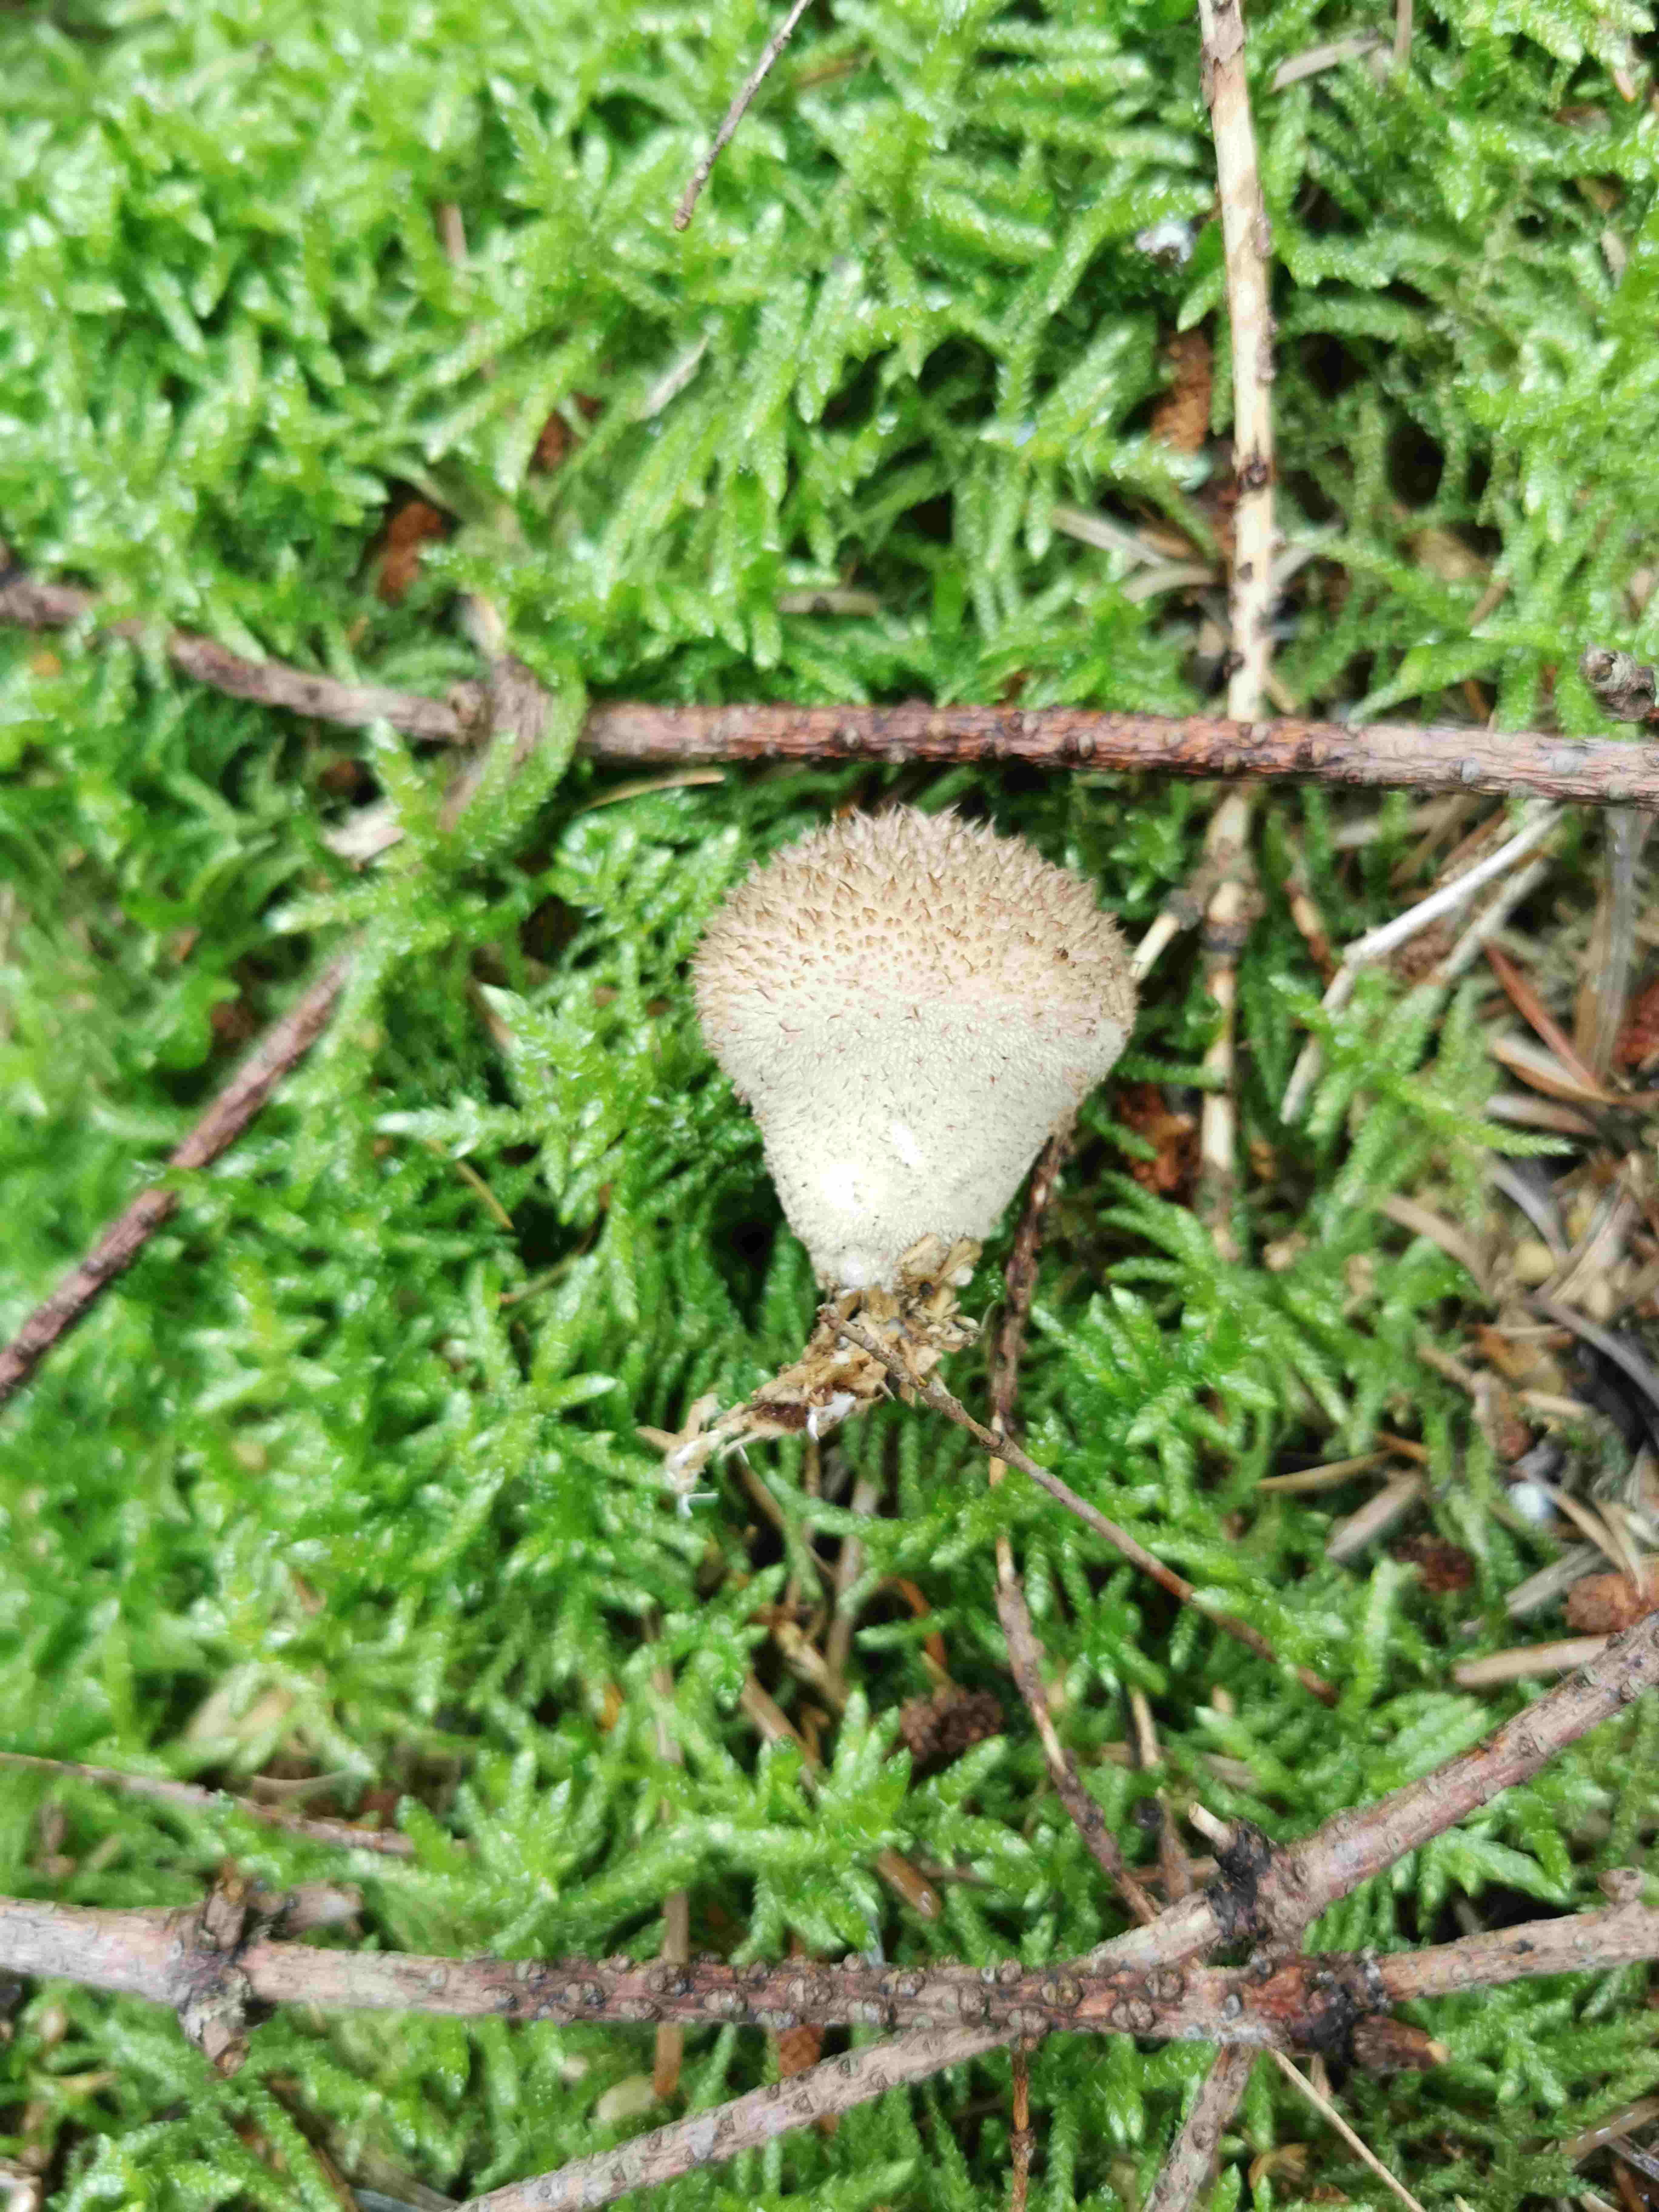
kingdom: Fungi
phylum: Basidiomycota
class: Agaricomycetes
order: Agaricales
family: Lycoperdaceae
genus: Lycoperdon
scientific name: Lycoperdon nigrescens
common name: sortagtig støvbold
